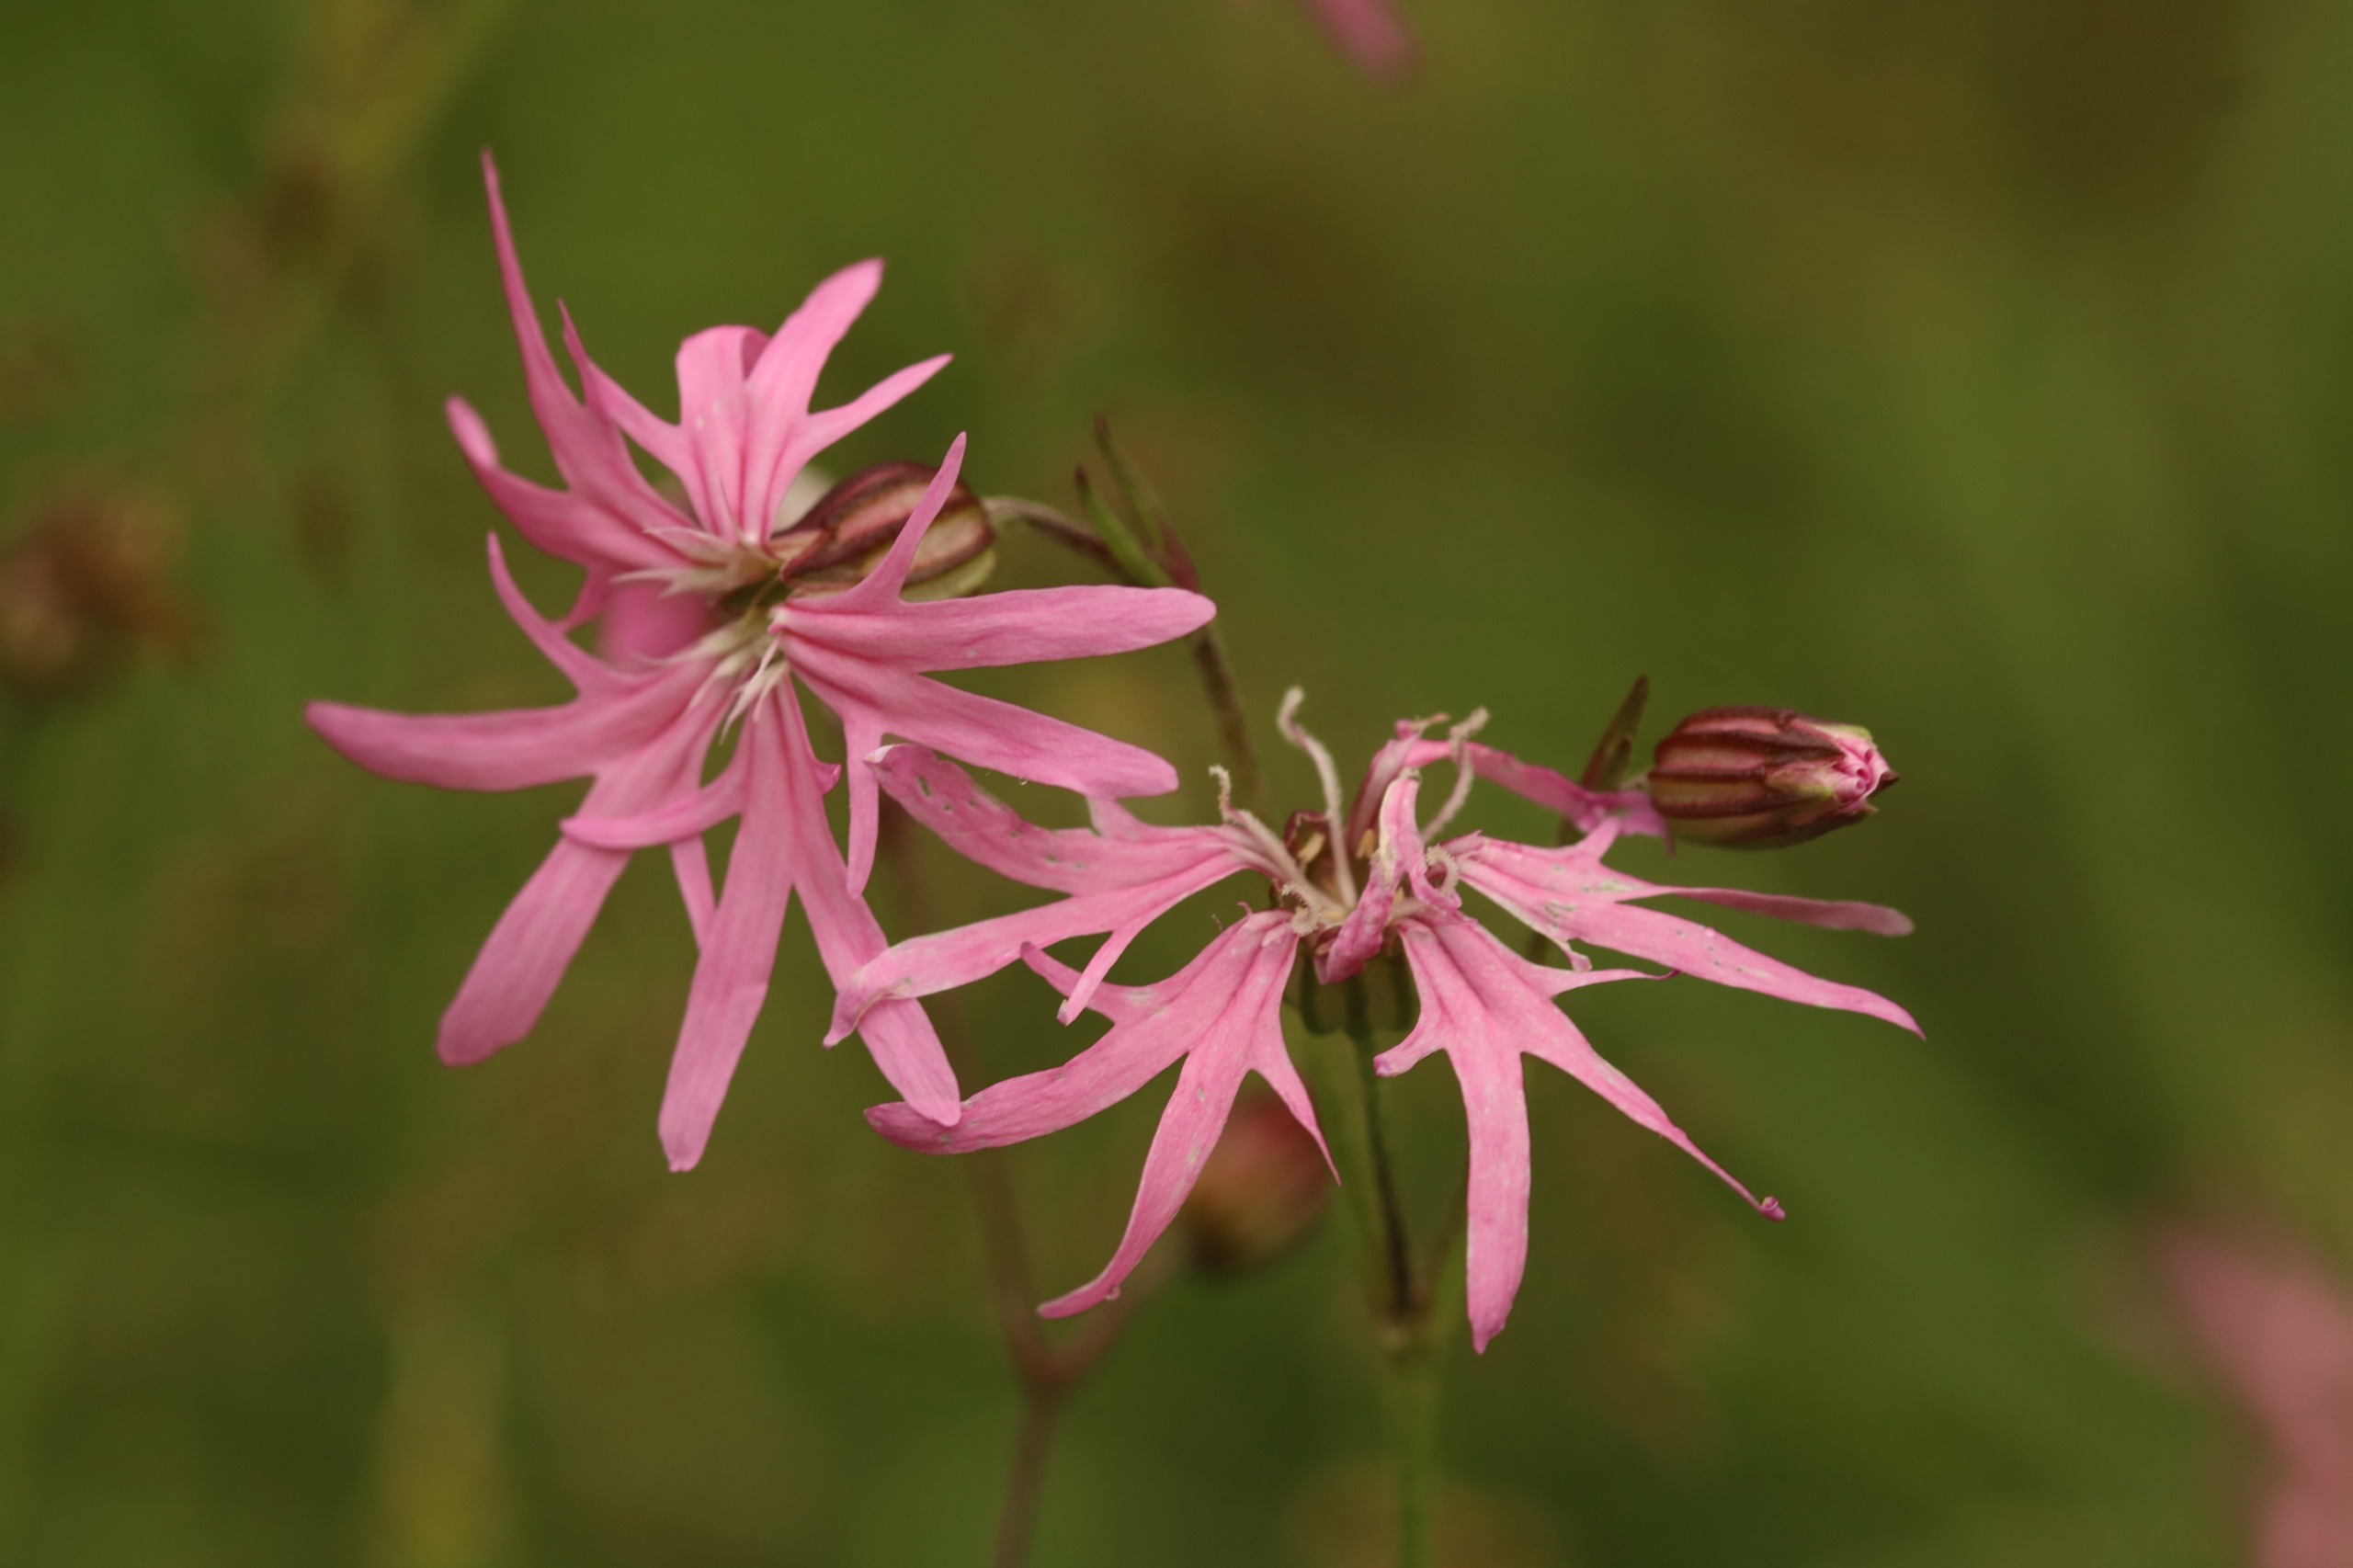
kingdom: Plantae
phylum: Tracheophyta
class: Magnoliopsida
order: Caryophyllales
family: Caryophyllaceae
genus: Silene
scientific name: Silene flos-cuculi
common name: Trævlekrone
